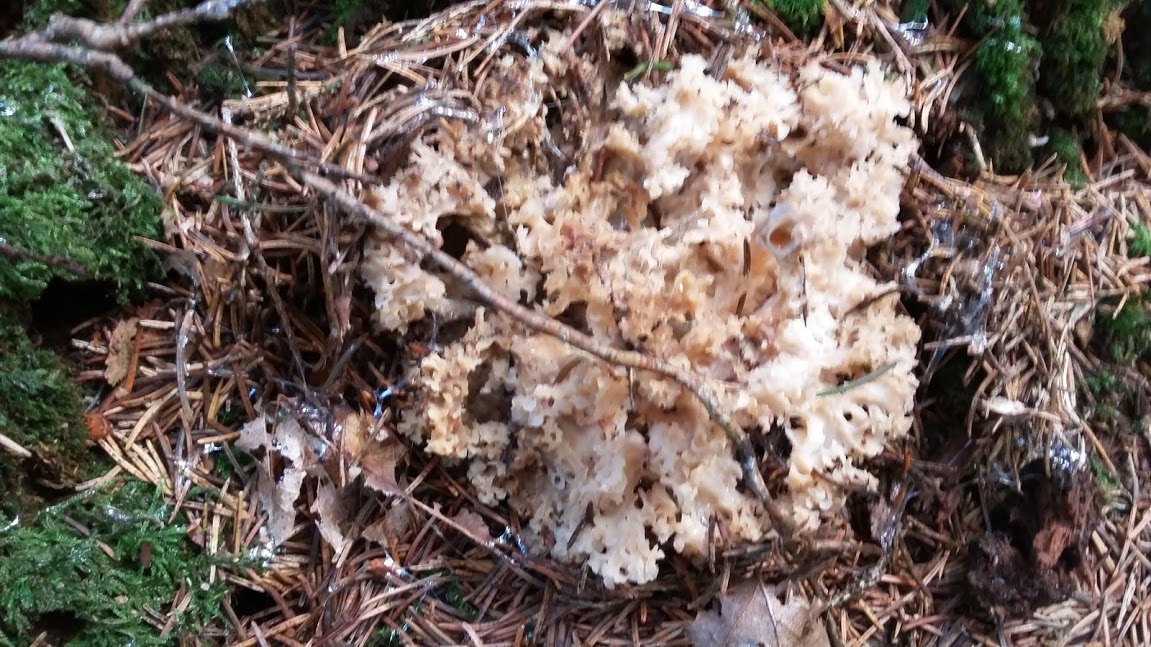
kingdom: Fungi
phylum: Basidiomycota
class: Agaricomycetes
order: Polyporales
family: Sparassidaceae
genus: Sparassis
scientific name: Sparassis crispa
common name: kruset blomkålssvamp
